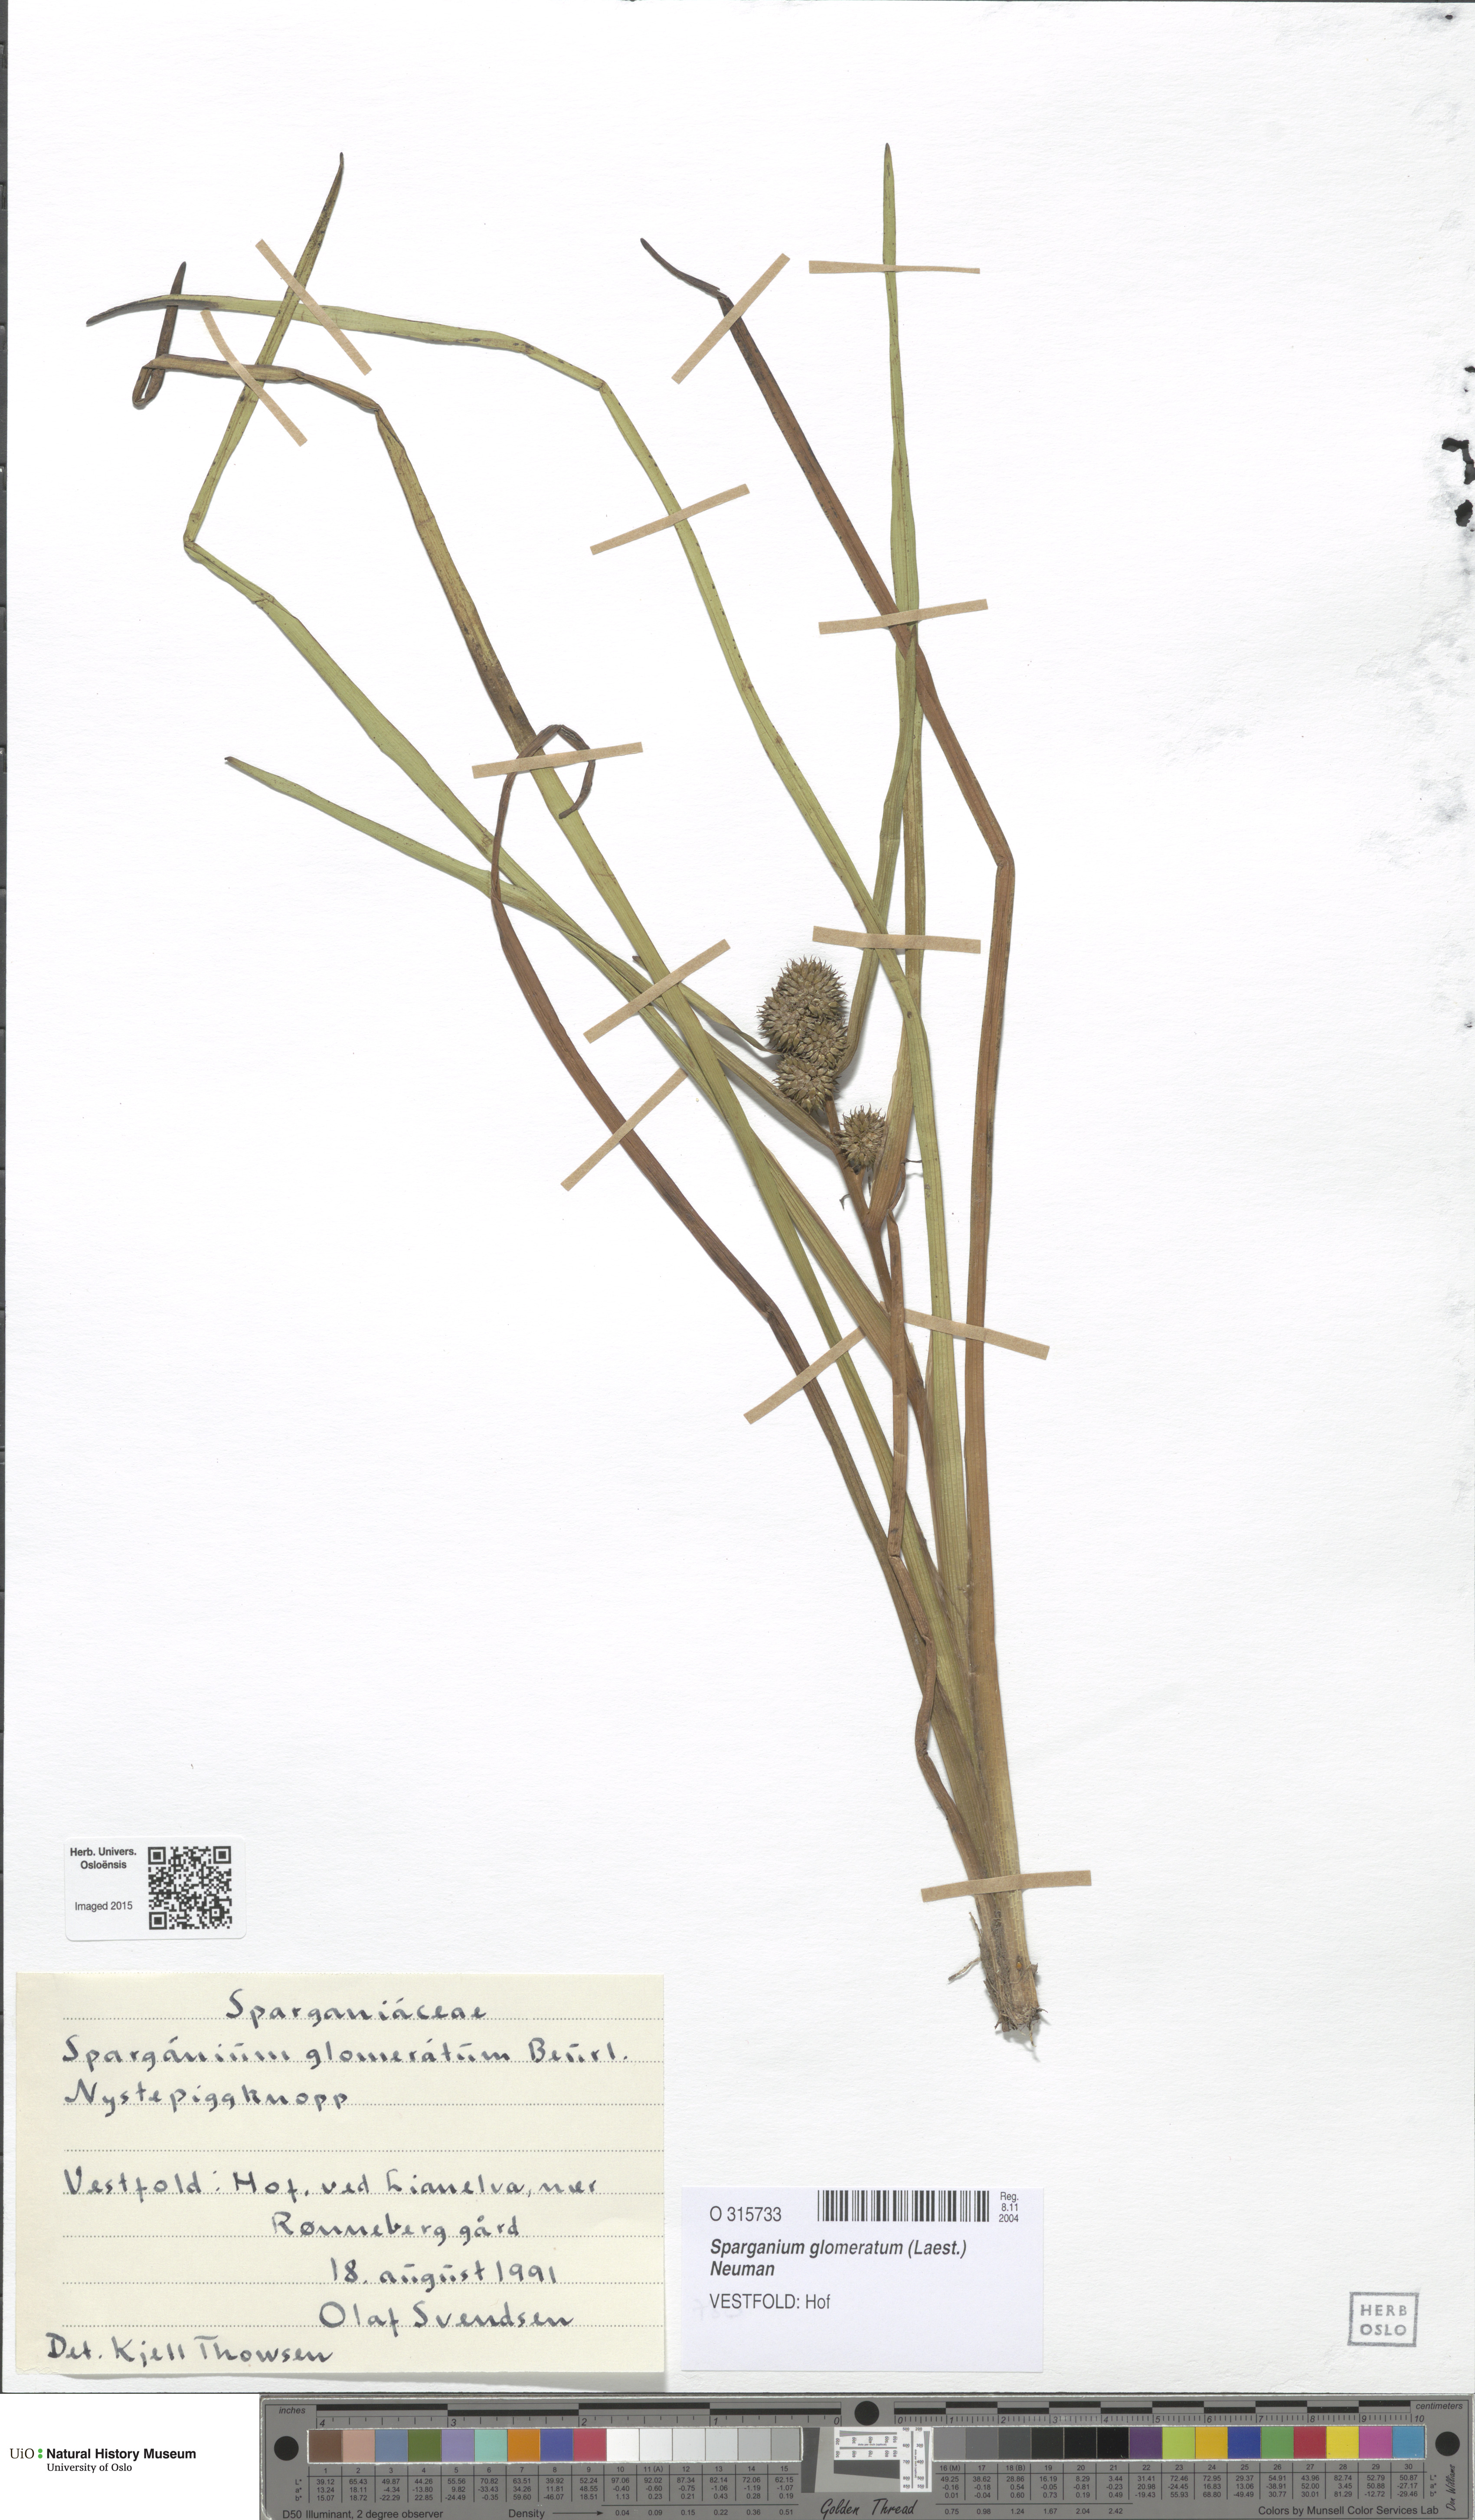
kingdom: Plantae
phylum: Tracheophyta
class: Liliopsida
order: Poales
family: Typhaceae
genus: Sparganium
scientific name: Sparganium glomeratum
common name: Clustered burreed
